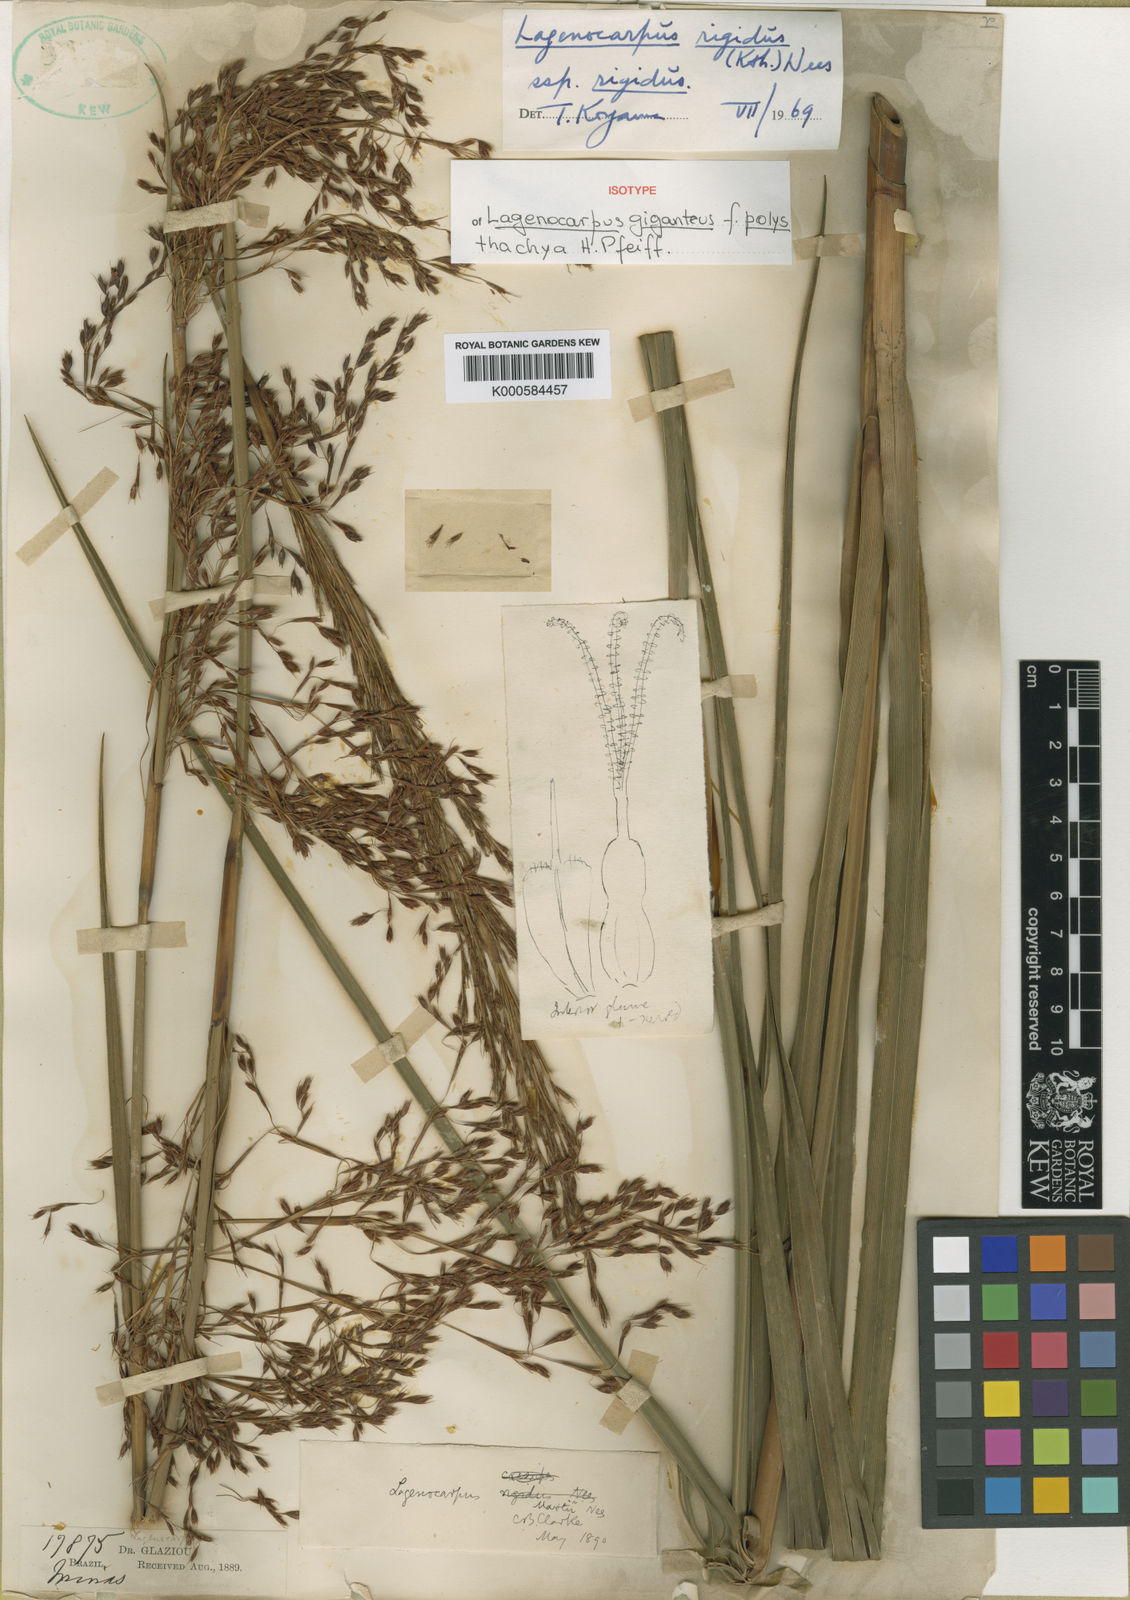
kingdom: Plantae
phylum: Tracheophyta
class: Liliopsida
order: Poales
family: Cyperaceae
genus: Lagenocarpus
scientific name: Lagenocarpus rigidus
